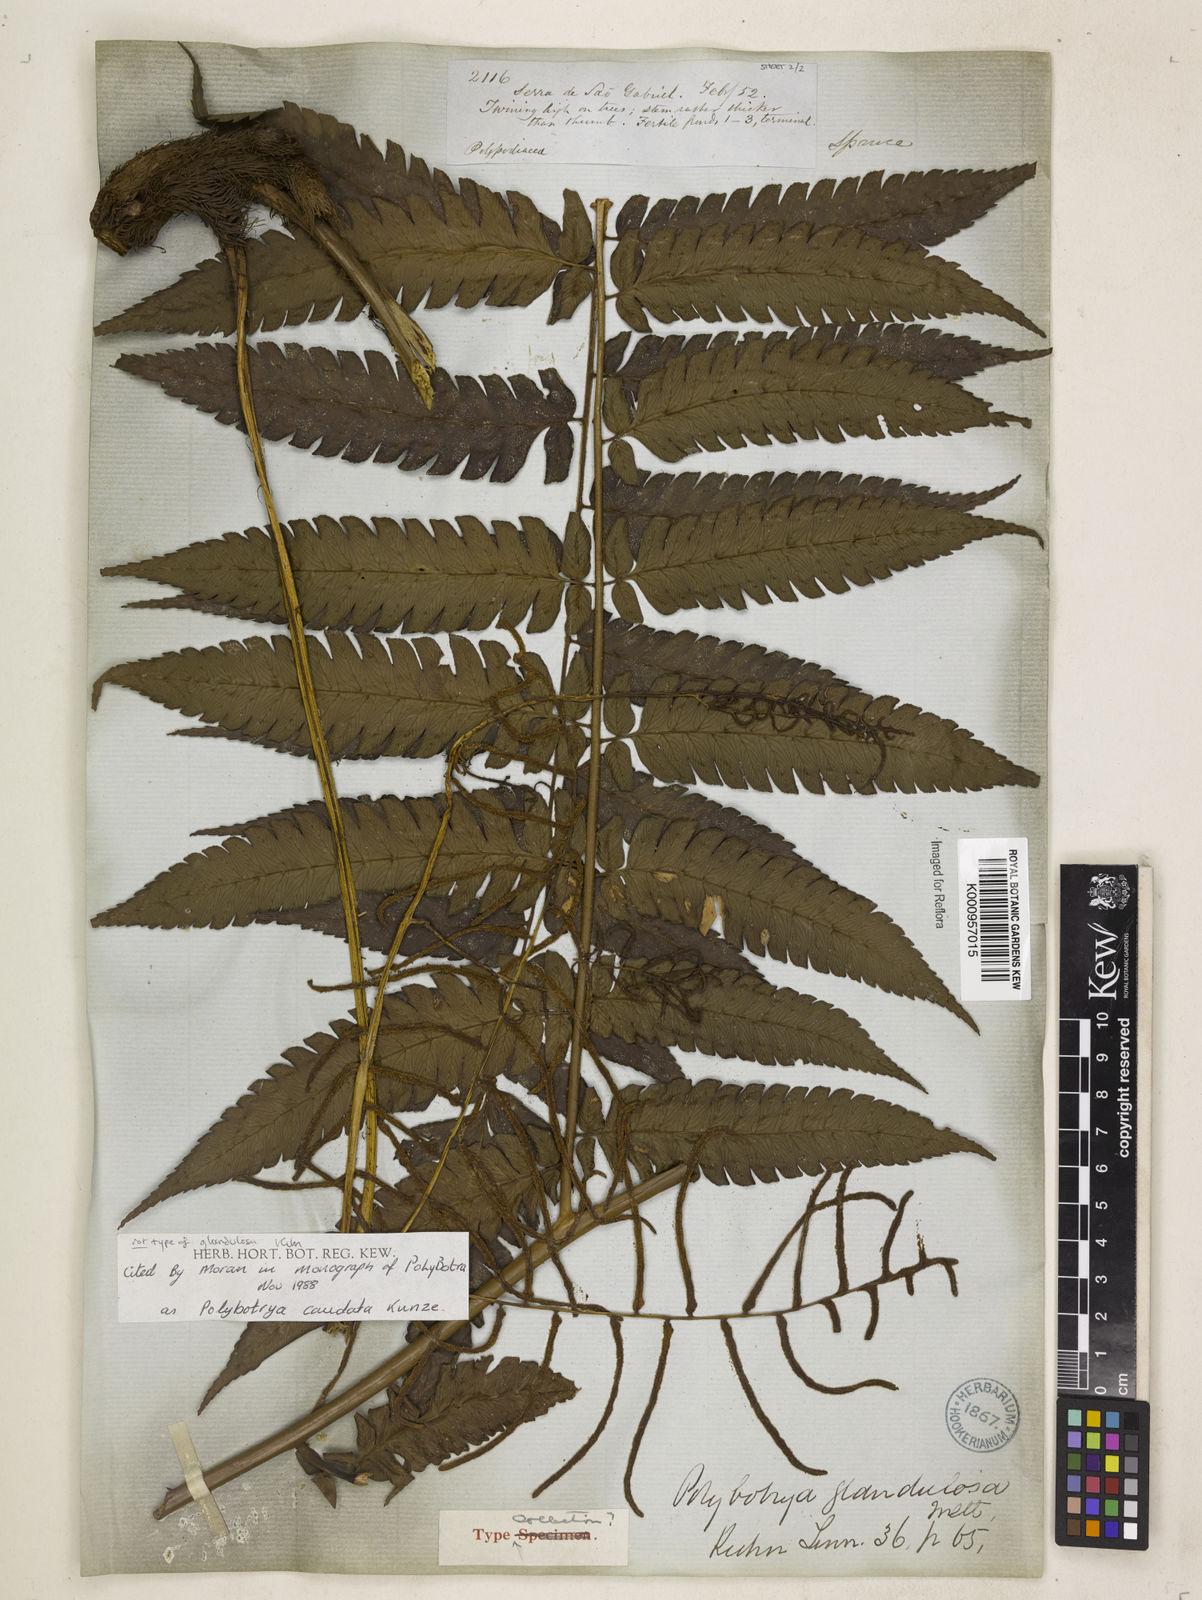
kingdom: Plantae
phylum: Tracheophyta
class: Polypodiopsida
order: Polypodiales
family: Dryopteridaceae
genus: Polybotrya
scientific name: Polybotrya caudata
